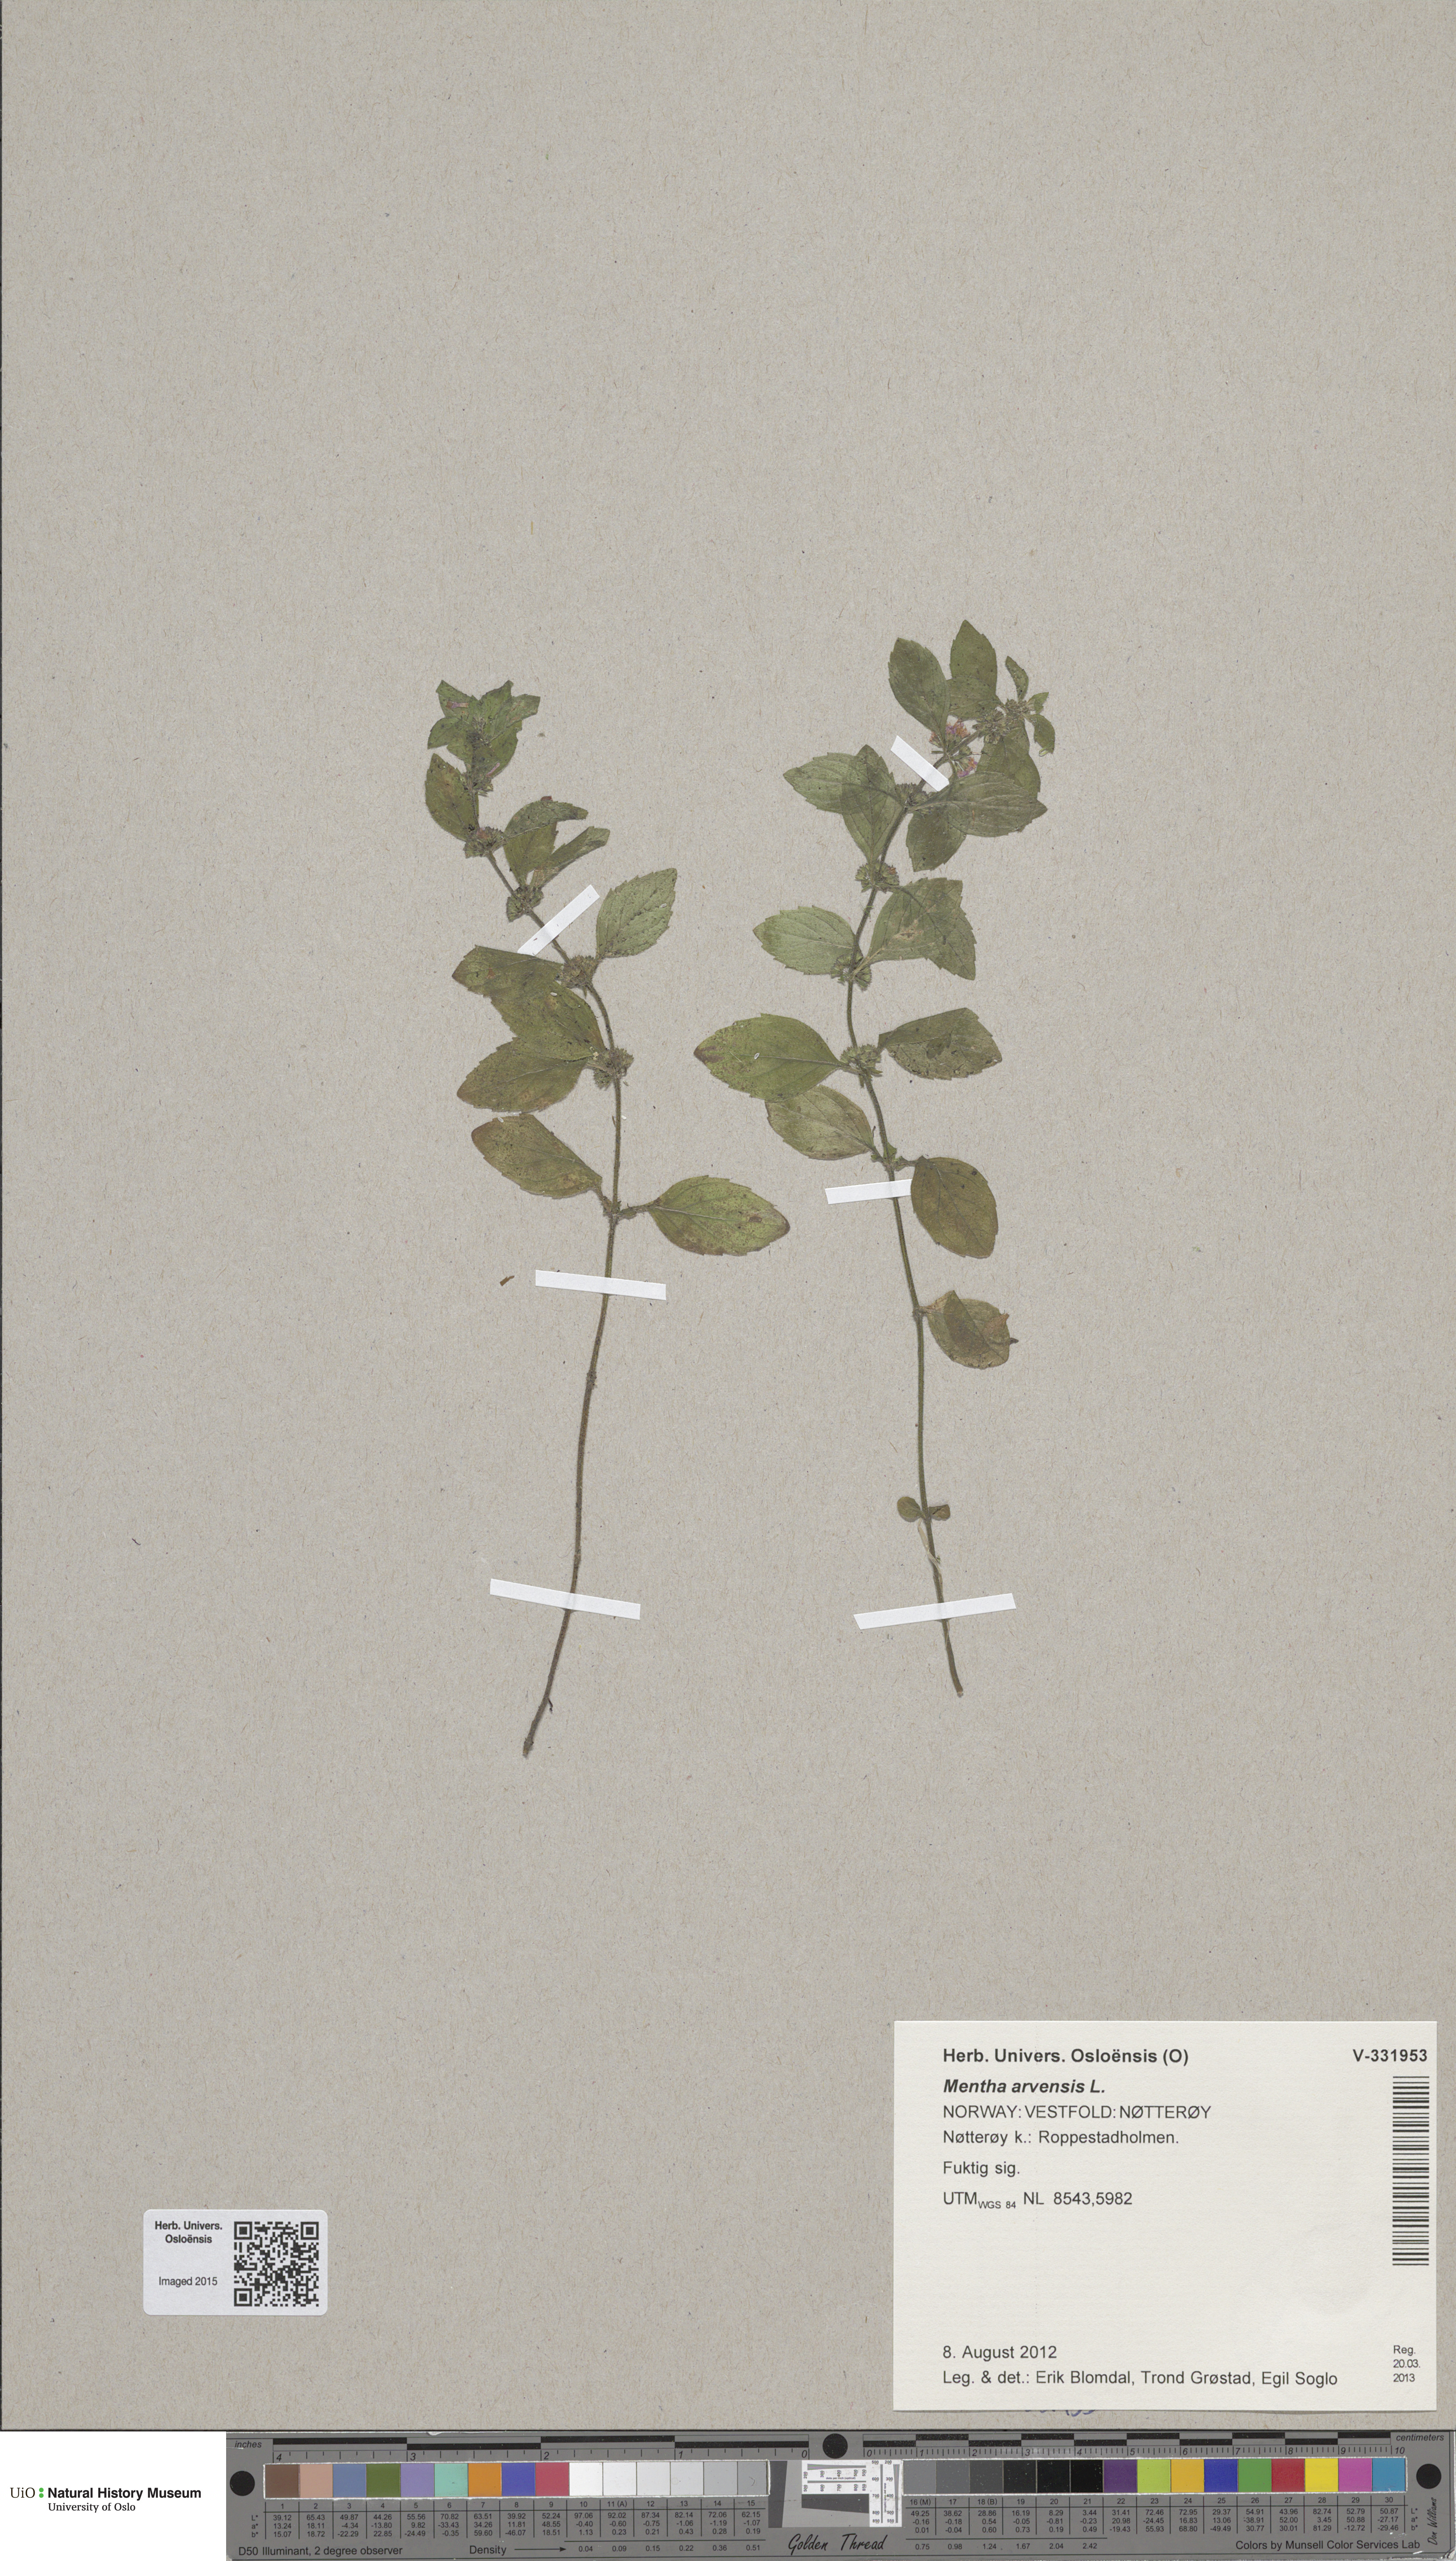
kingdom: Plantae
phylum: Tracheophyta
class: Magnoliopsida
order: Lamiales
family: Lamiaceae
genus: Mentha
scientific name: Mentha arvensis
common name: Corn mint
